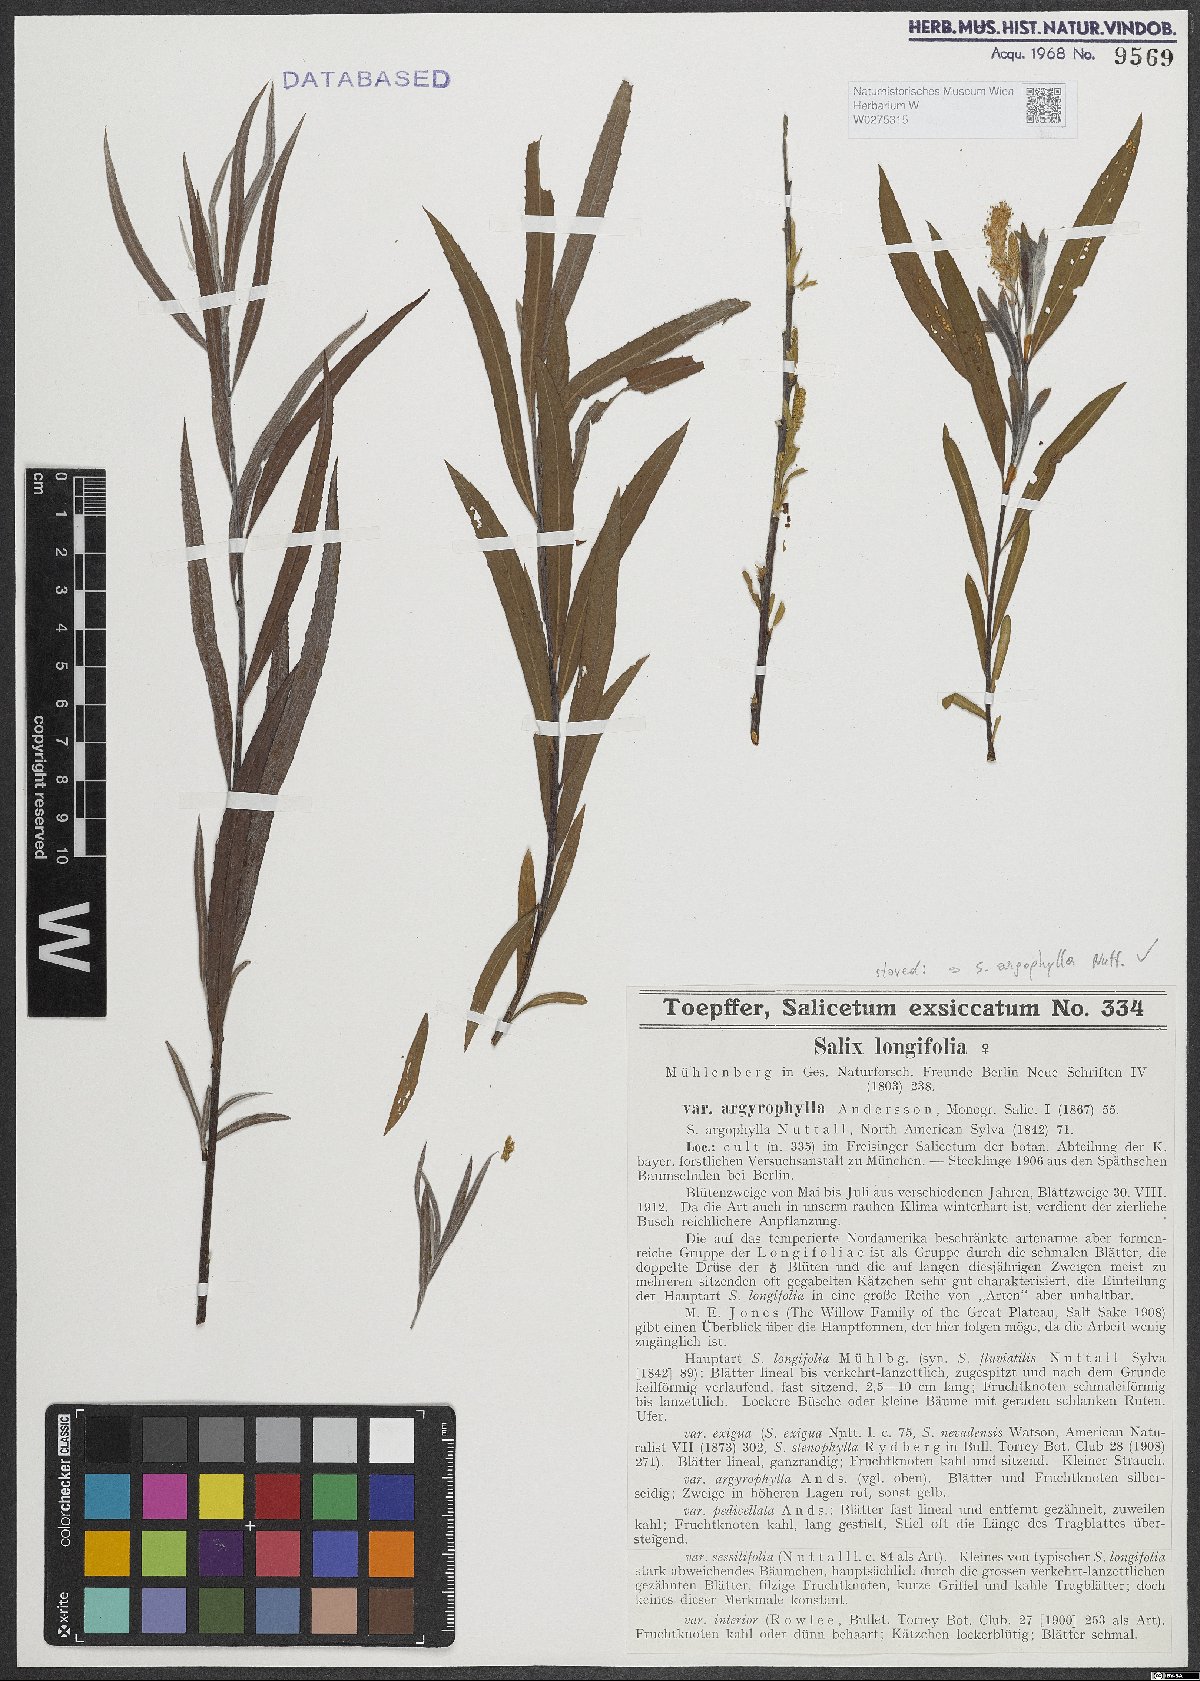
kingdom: Plantae
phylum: Tracheophyta
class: Magnoliopsida
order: Malpighiales
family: Salicaceae
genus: Salix
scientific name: Salix exigua
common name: Coyote willow
